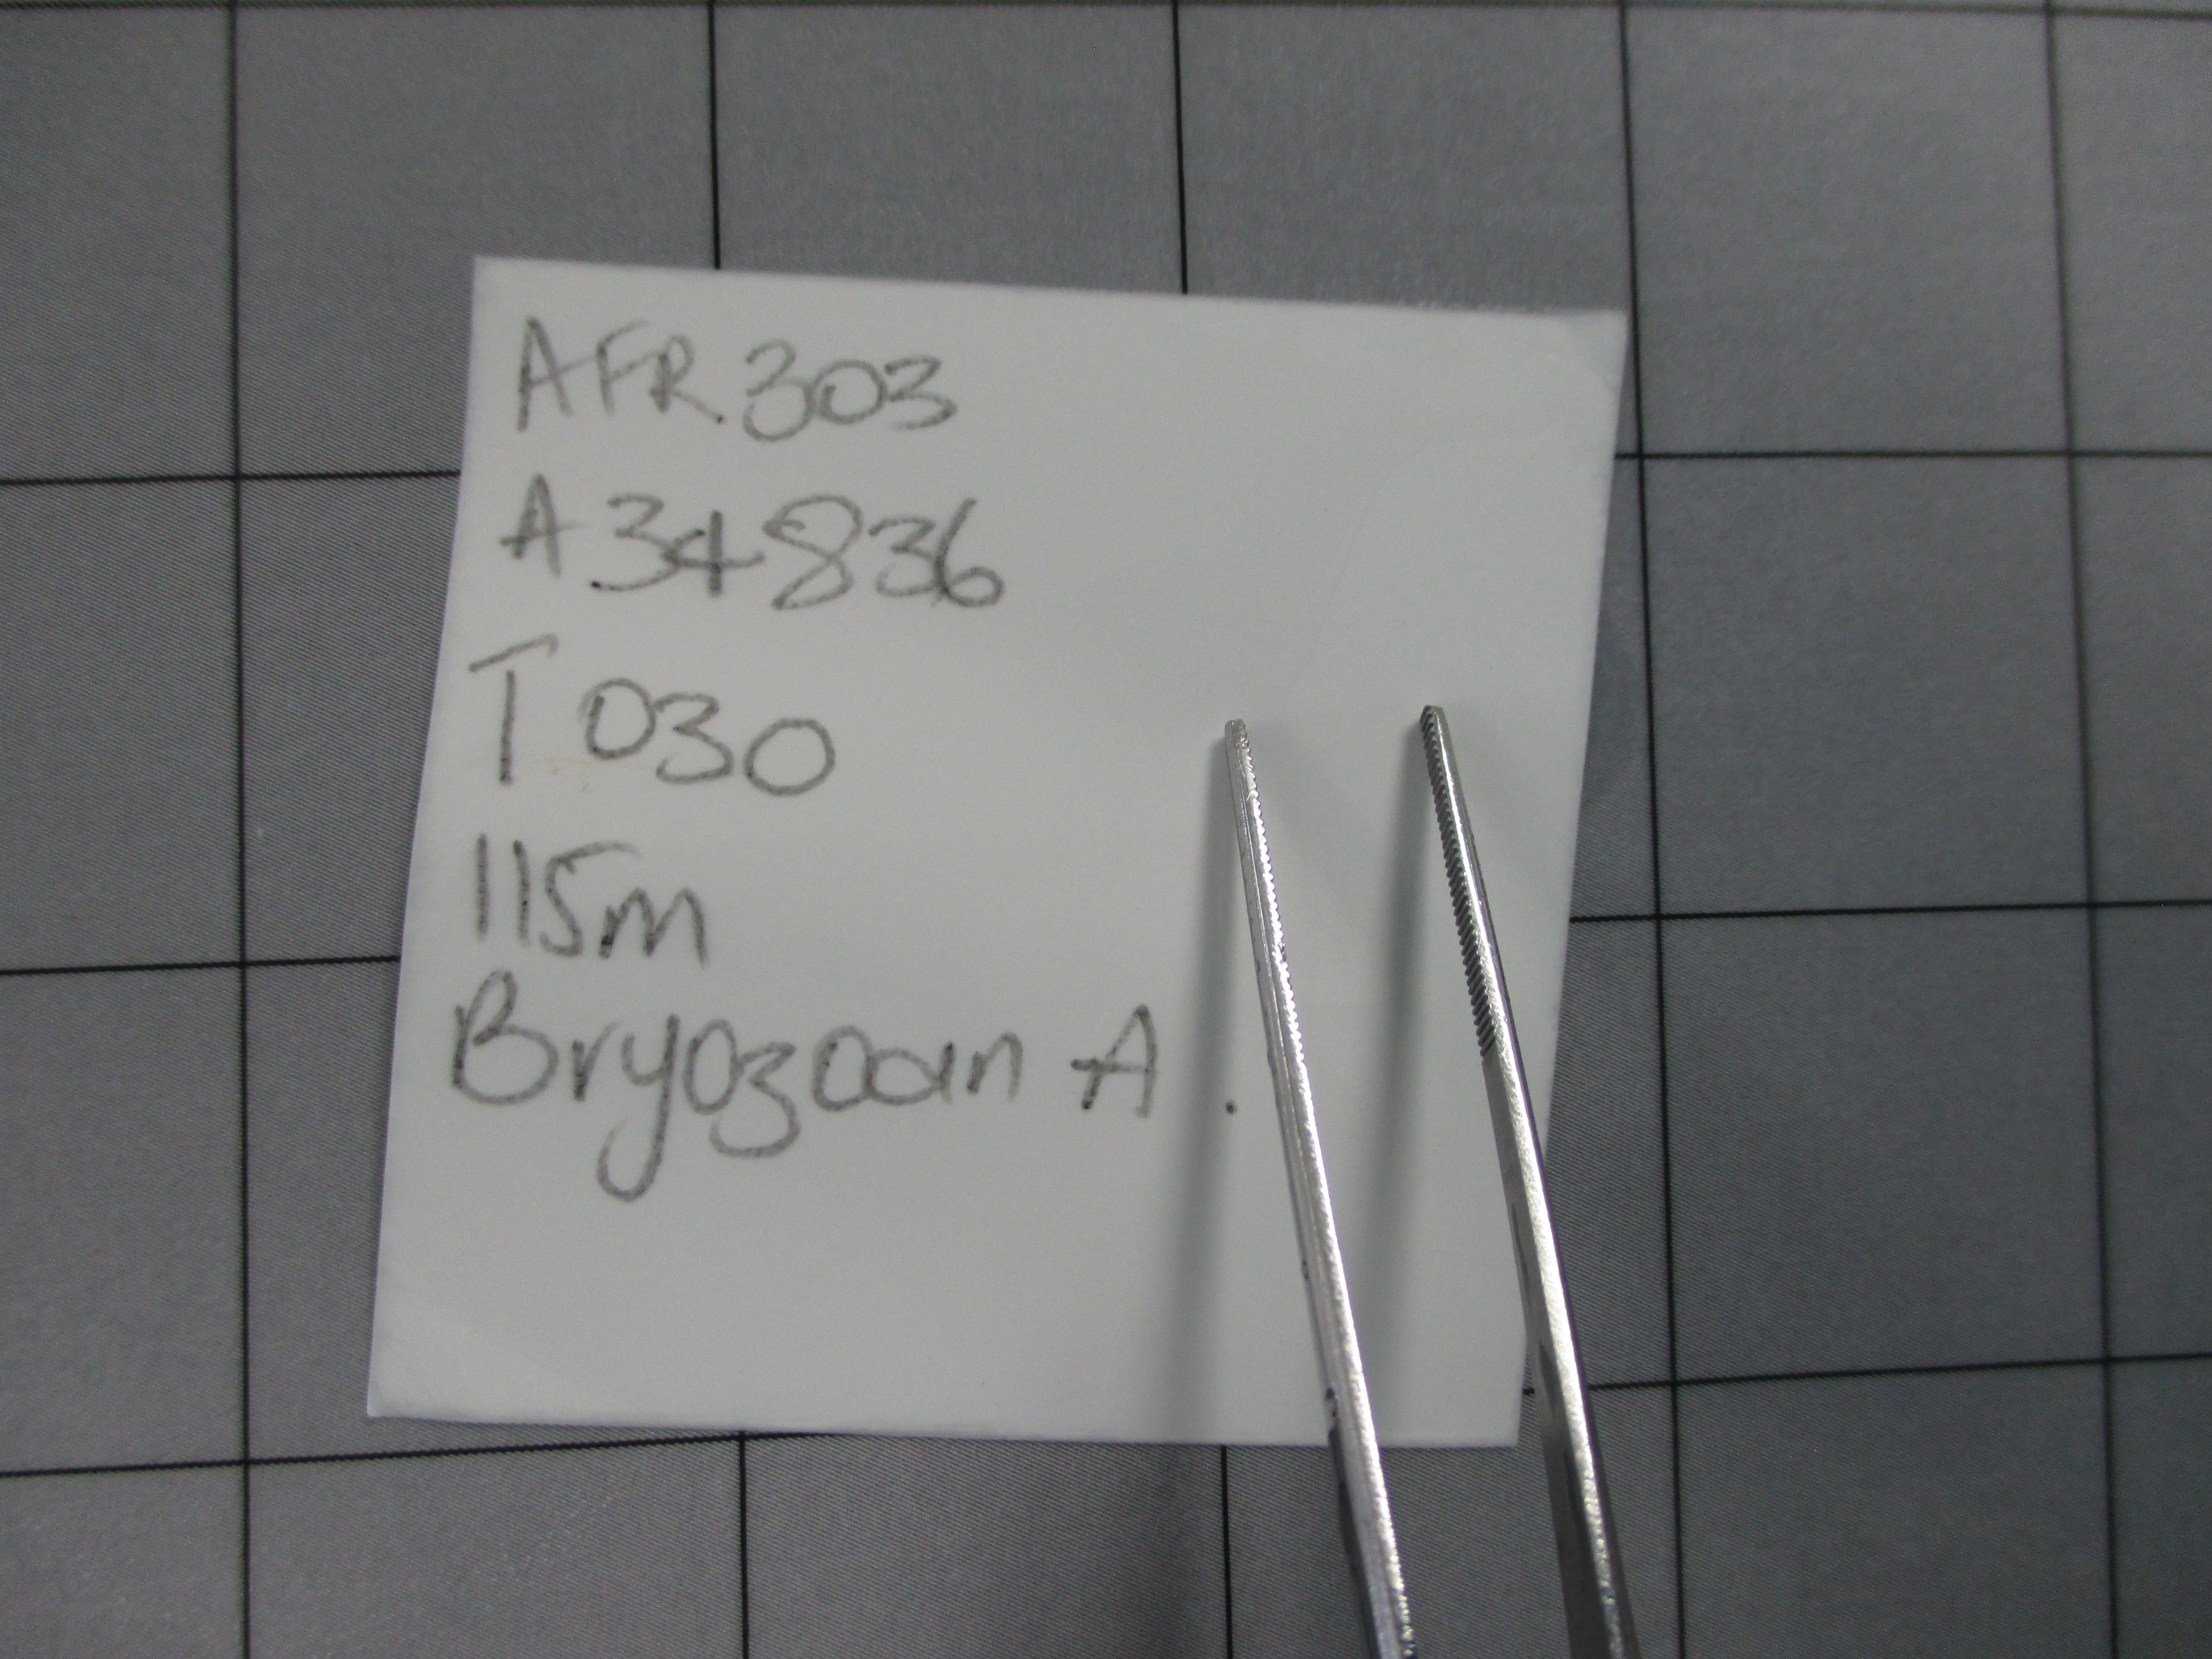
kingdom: Animalia
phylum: Bryozoa
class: Gymnolaemata
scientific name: Gymnolaemata
